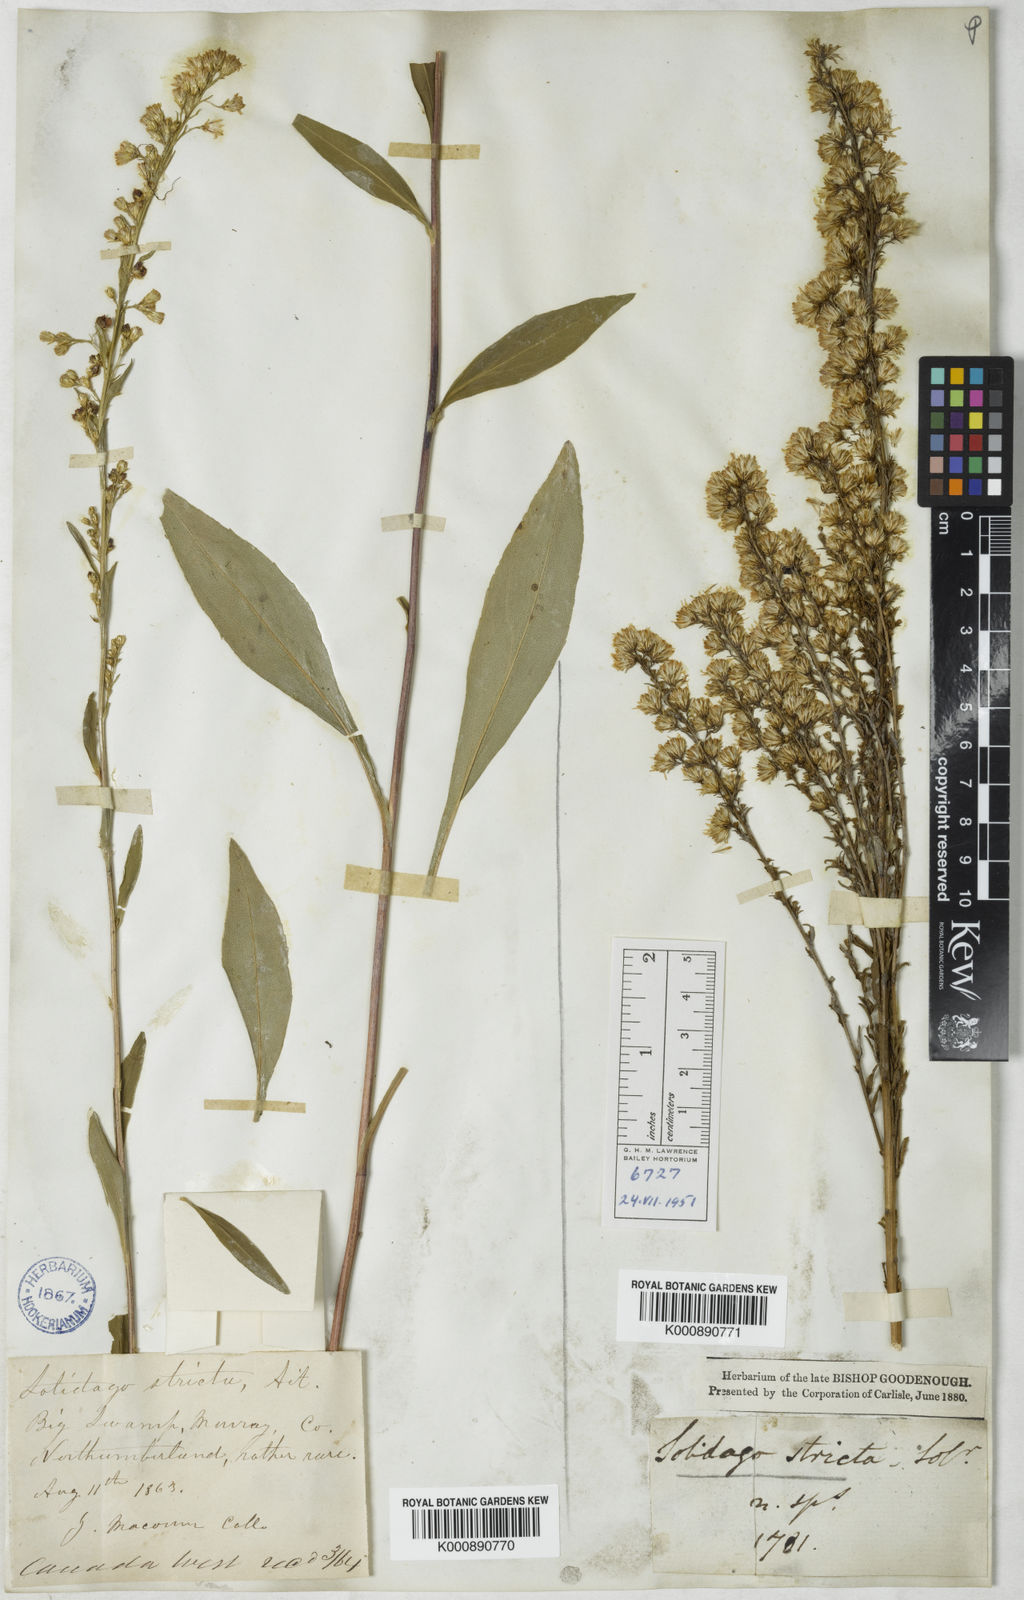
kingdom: Plantae
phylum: Tracheophyta
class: Magnoliopsida
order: Asterales
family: Asteraceae
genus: Solidago
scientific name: Solidago stricta
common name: Pine barren bog goldenrod
